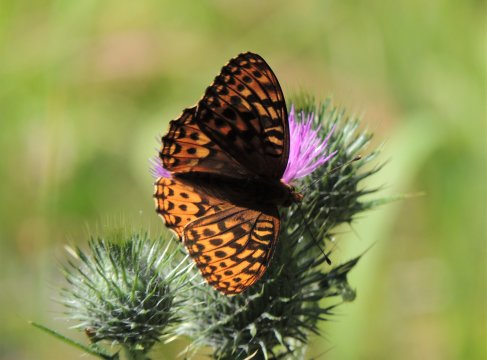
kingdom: Animalia
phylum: Arthropoda
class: Insecta
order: Lepidoptera
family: Nymphalidae
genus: Speyeria
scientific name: Speyeria hydaspe
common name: Hydaspe Fritillary
